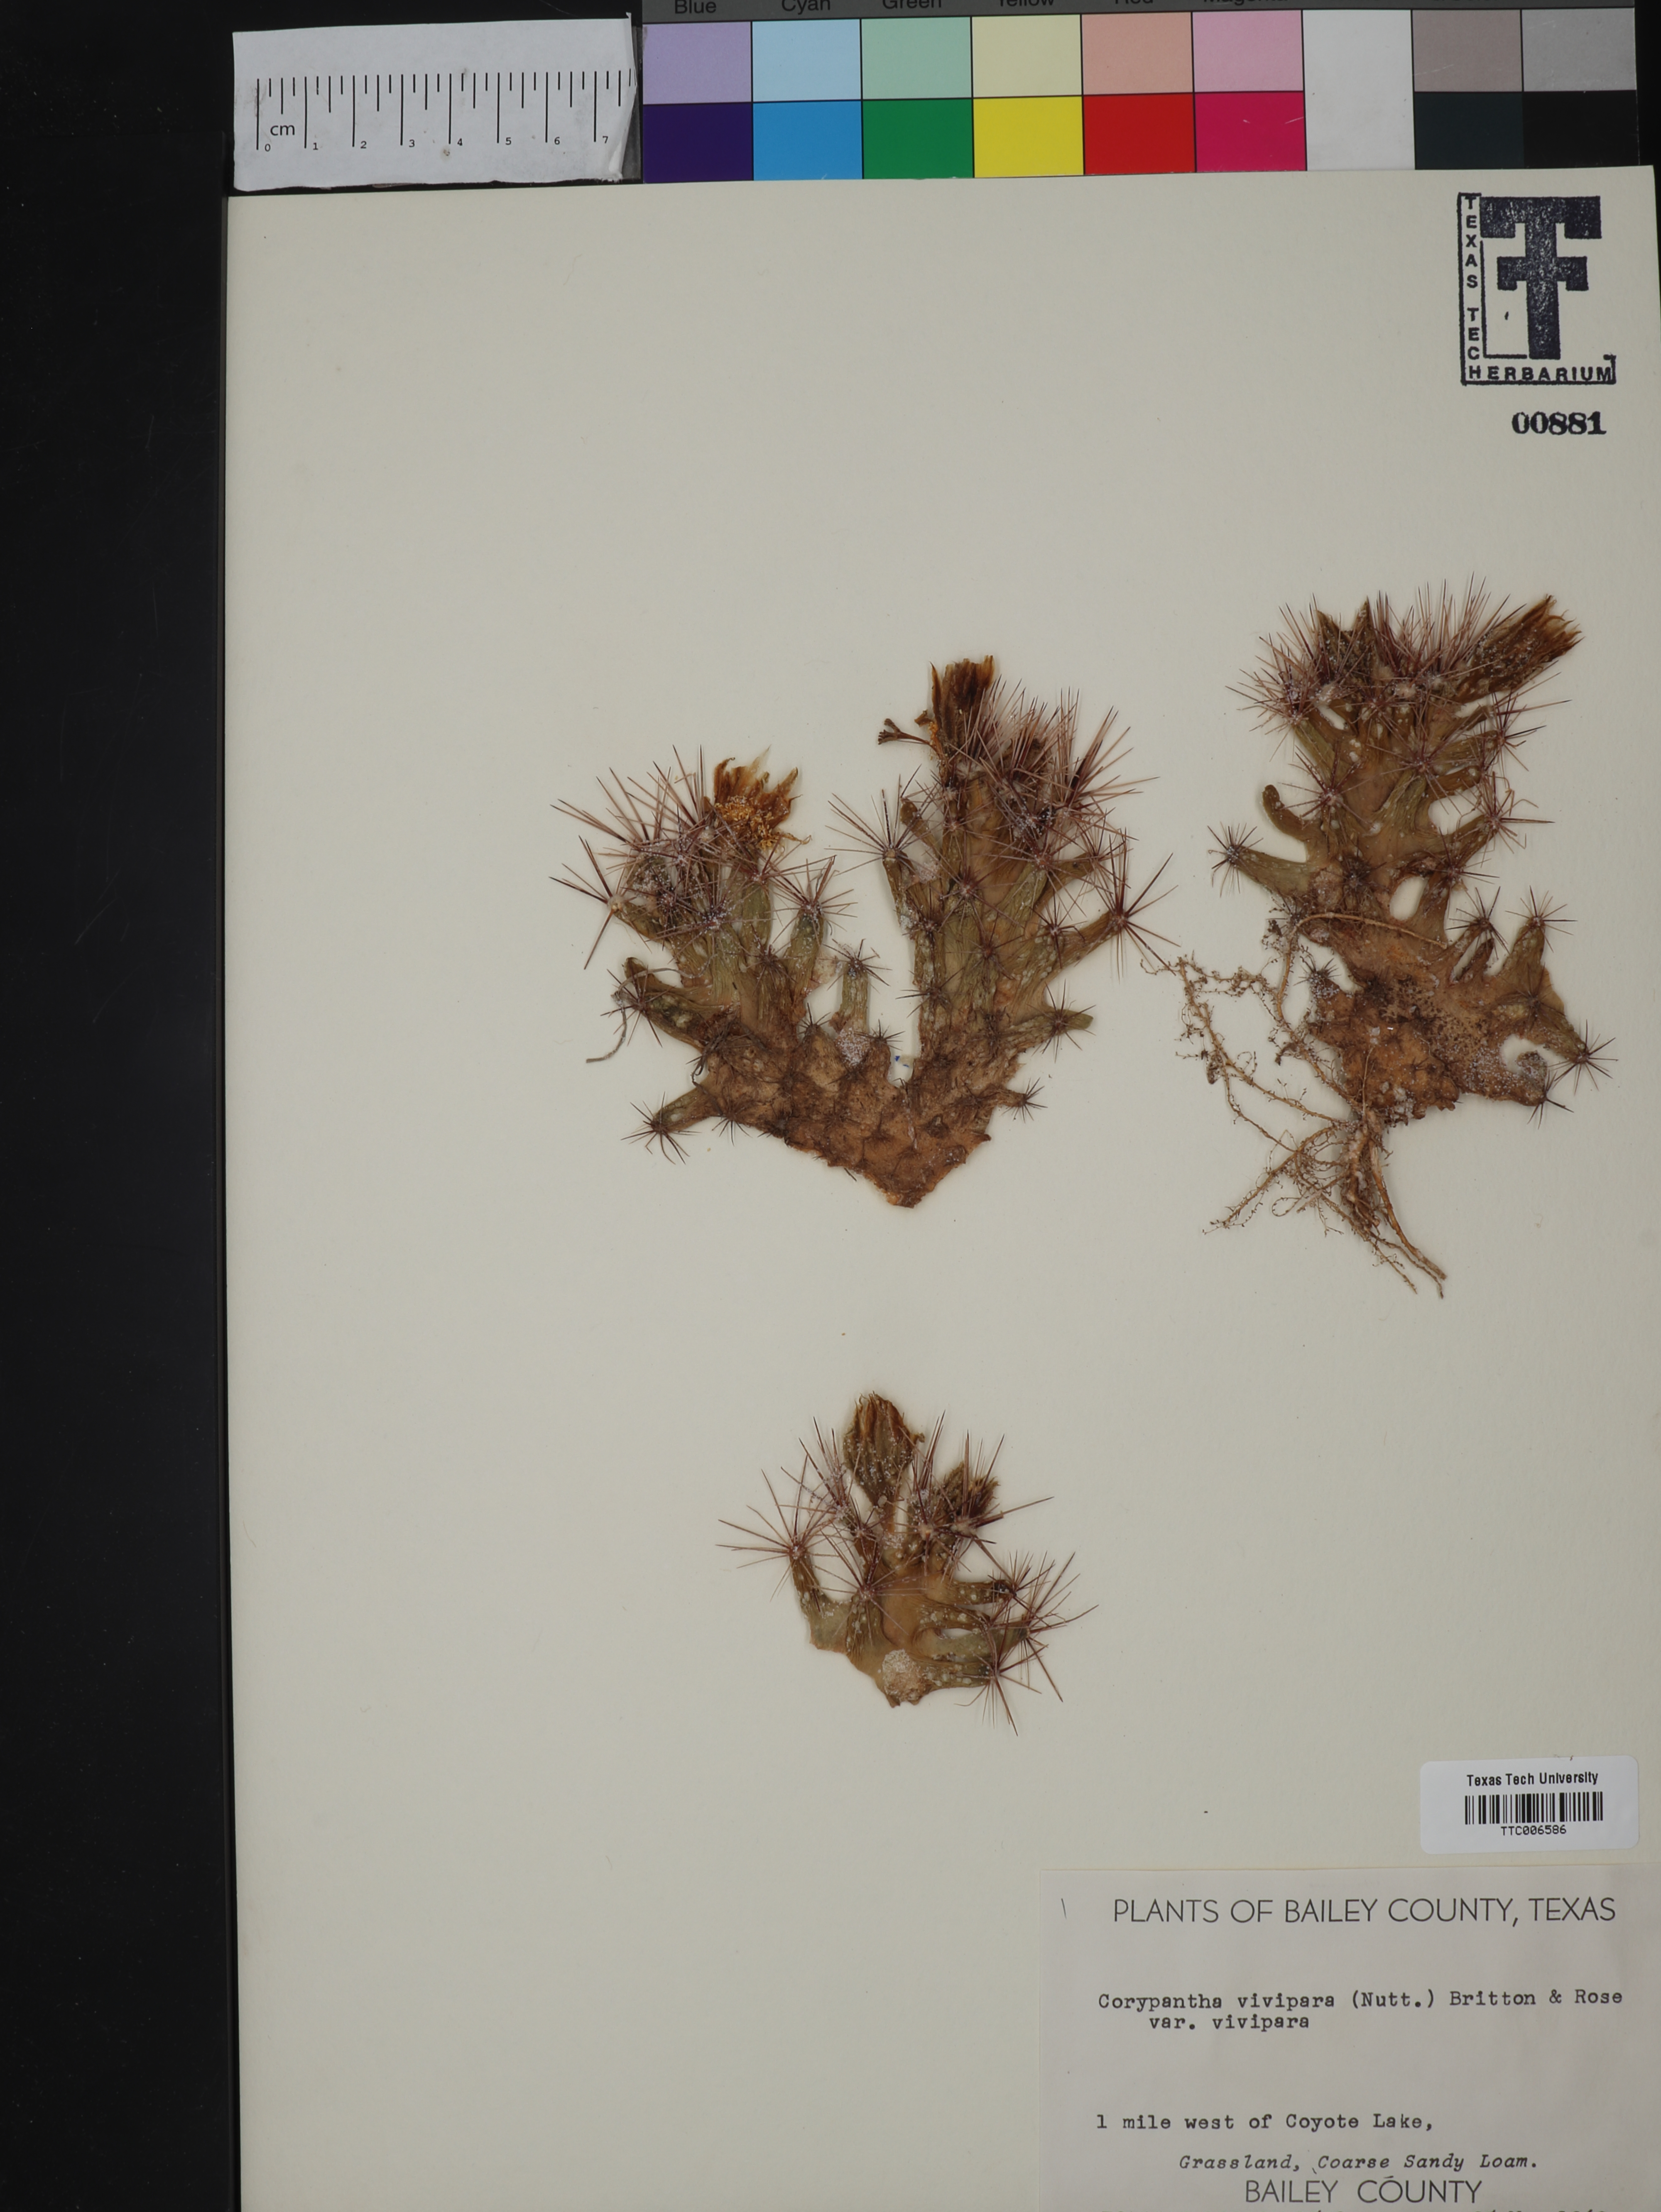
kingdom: Plantae
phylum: Tracheophyta
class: Magnoliopsida
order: Caryophyllales
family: Cactaceae
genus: Pelecyphora
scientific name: Pelecyphora vivipara
